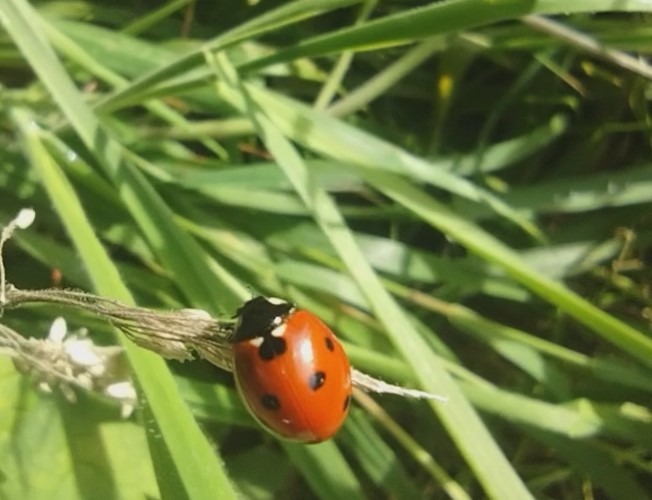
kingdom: Animalia
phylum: Arthropoda
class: Insecta
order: Coleoptera
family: Coccinellidae
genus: Coccinella
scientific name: Coccinella septempunctata
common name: Syvplettet mariehøne
